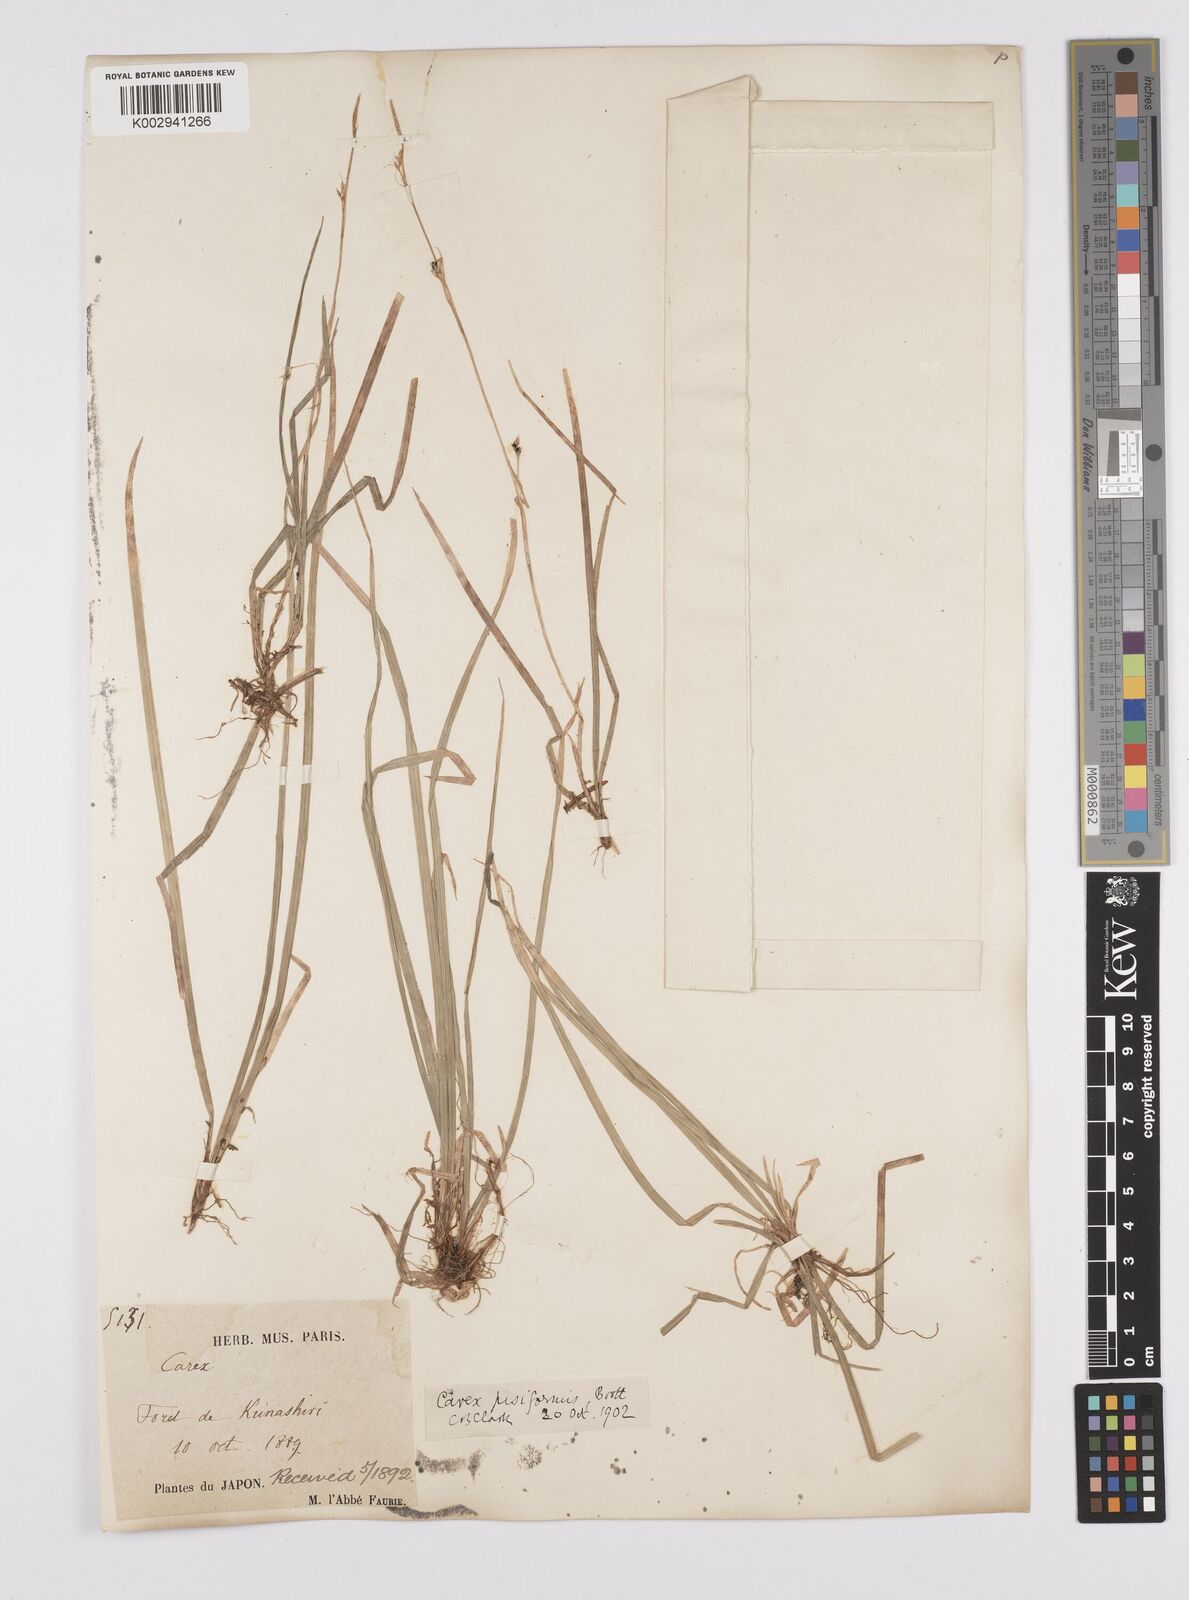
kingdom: Plantae
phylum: Tracheophyta
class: Liliopsida
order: Poales
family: Cyperaceae
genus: Carex
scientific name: Carex pisiformis
